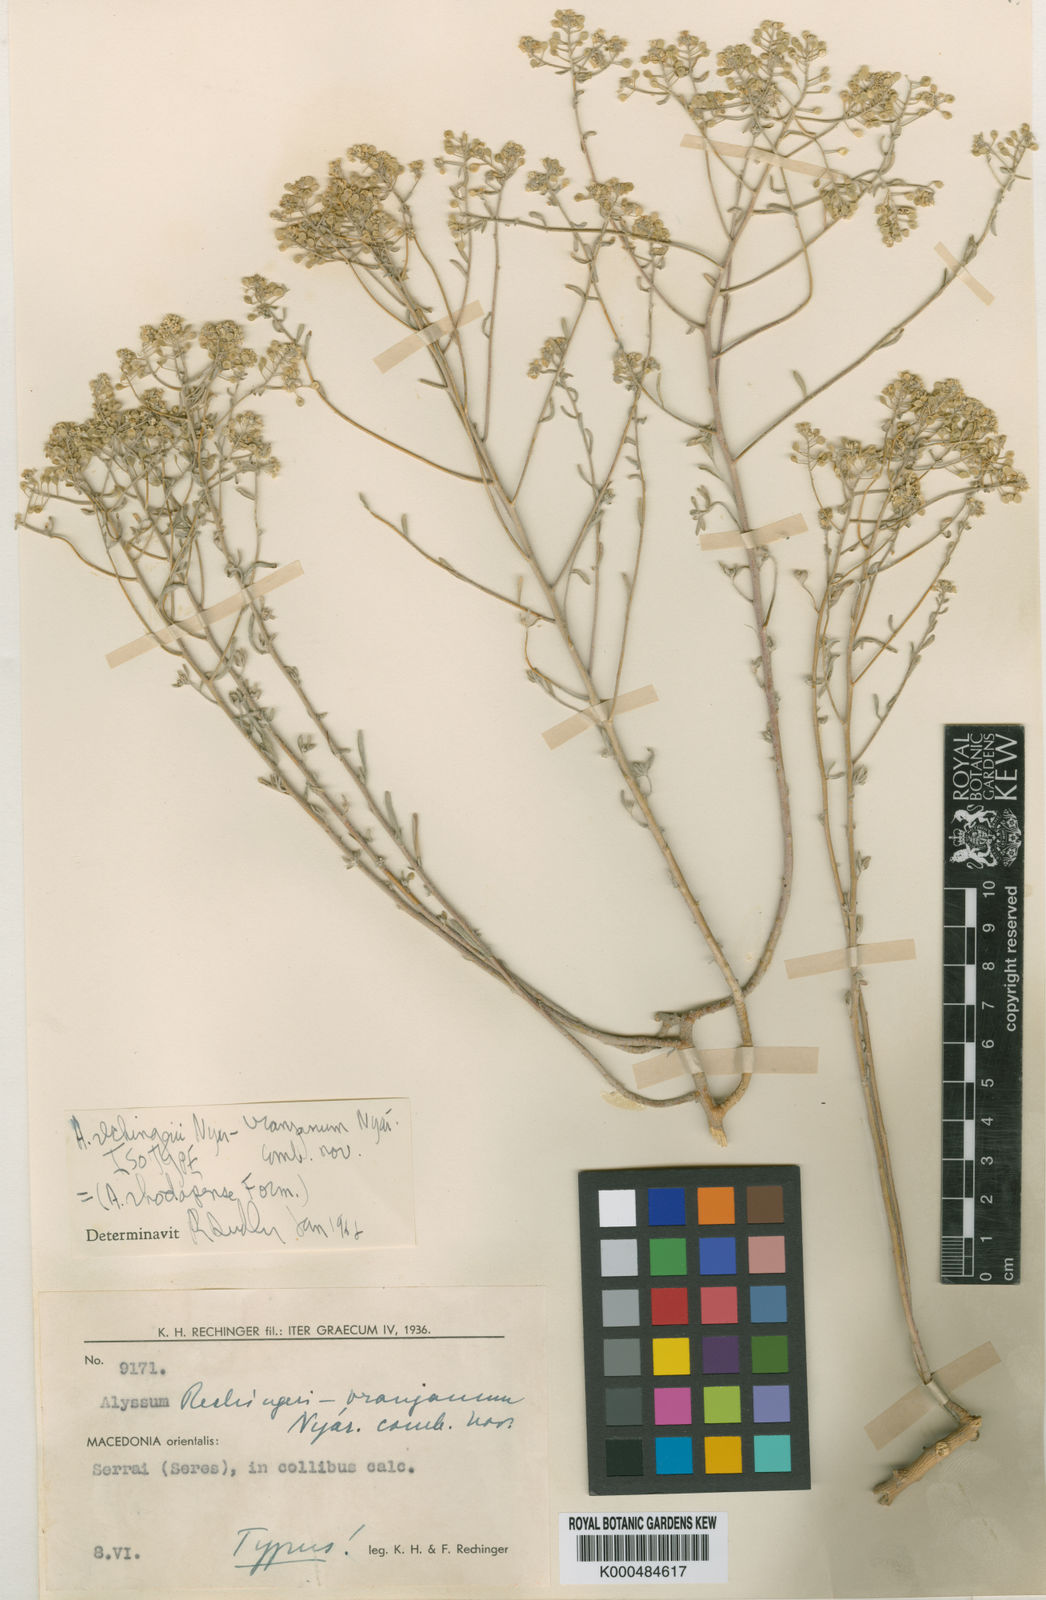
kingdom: Plantae
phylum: Tracheophyta
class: Magnoliopsida
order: Brassicales
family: Brassicaceae
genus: Odontarrhena
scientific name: Odontarrhena corymbosoidea
